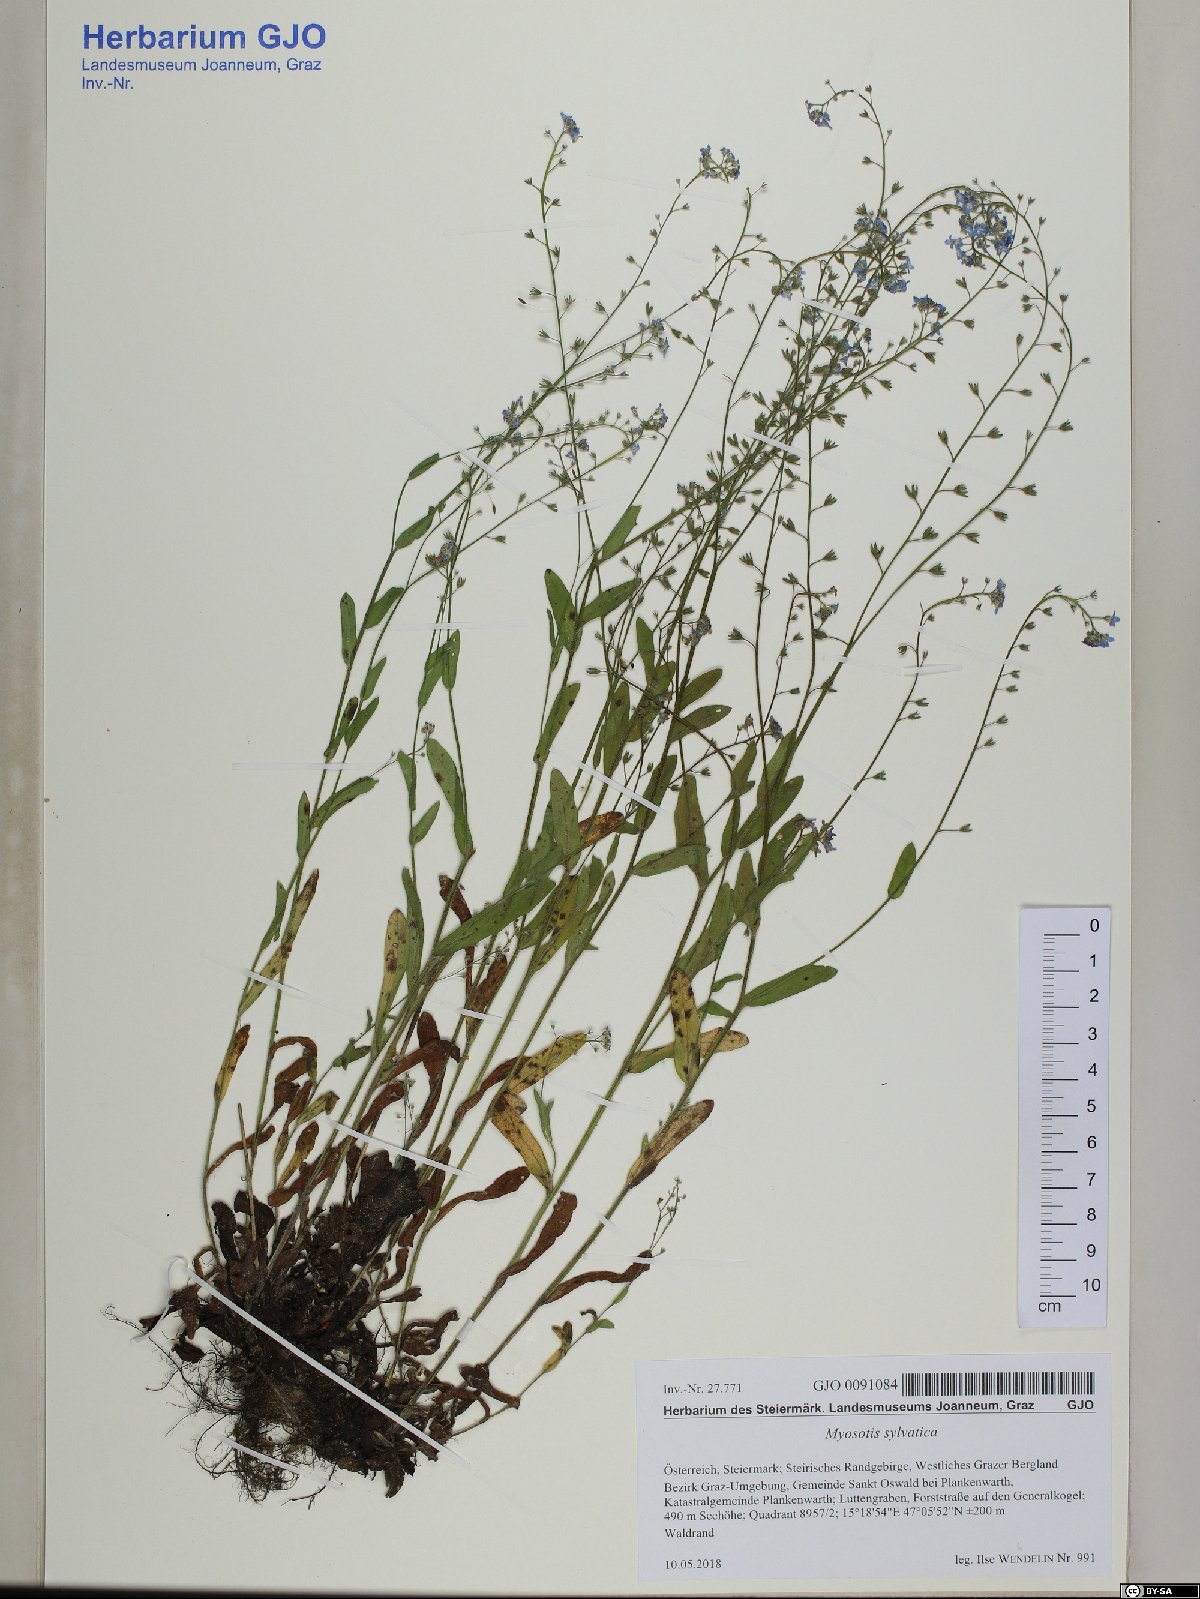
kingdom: Plantae
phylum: Tracheophyta
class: Magnoliopsida
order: Boraginales
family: Boraginaceae
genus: Myosotis
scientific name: Myosotis sylvatica
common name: Wood forget-me-not
